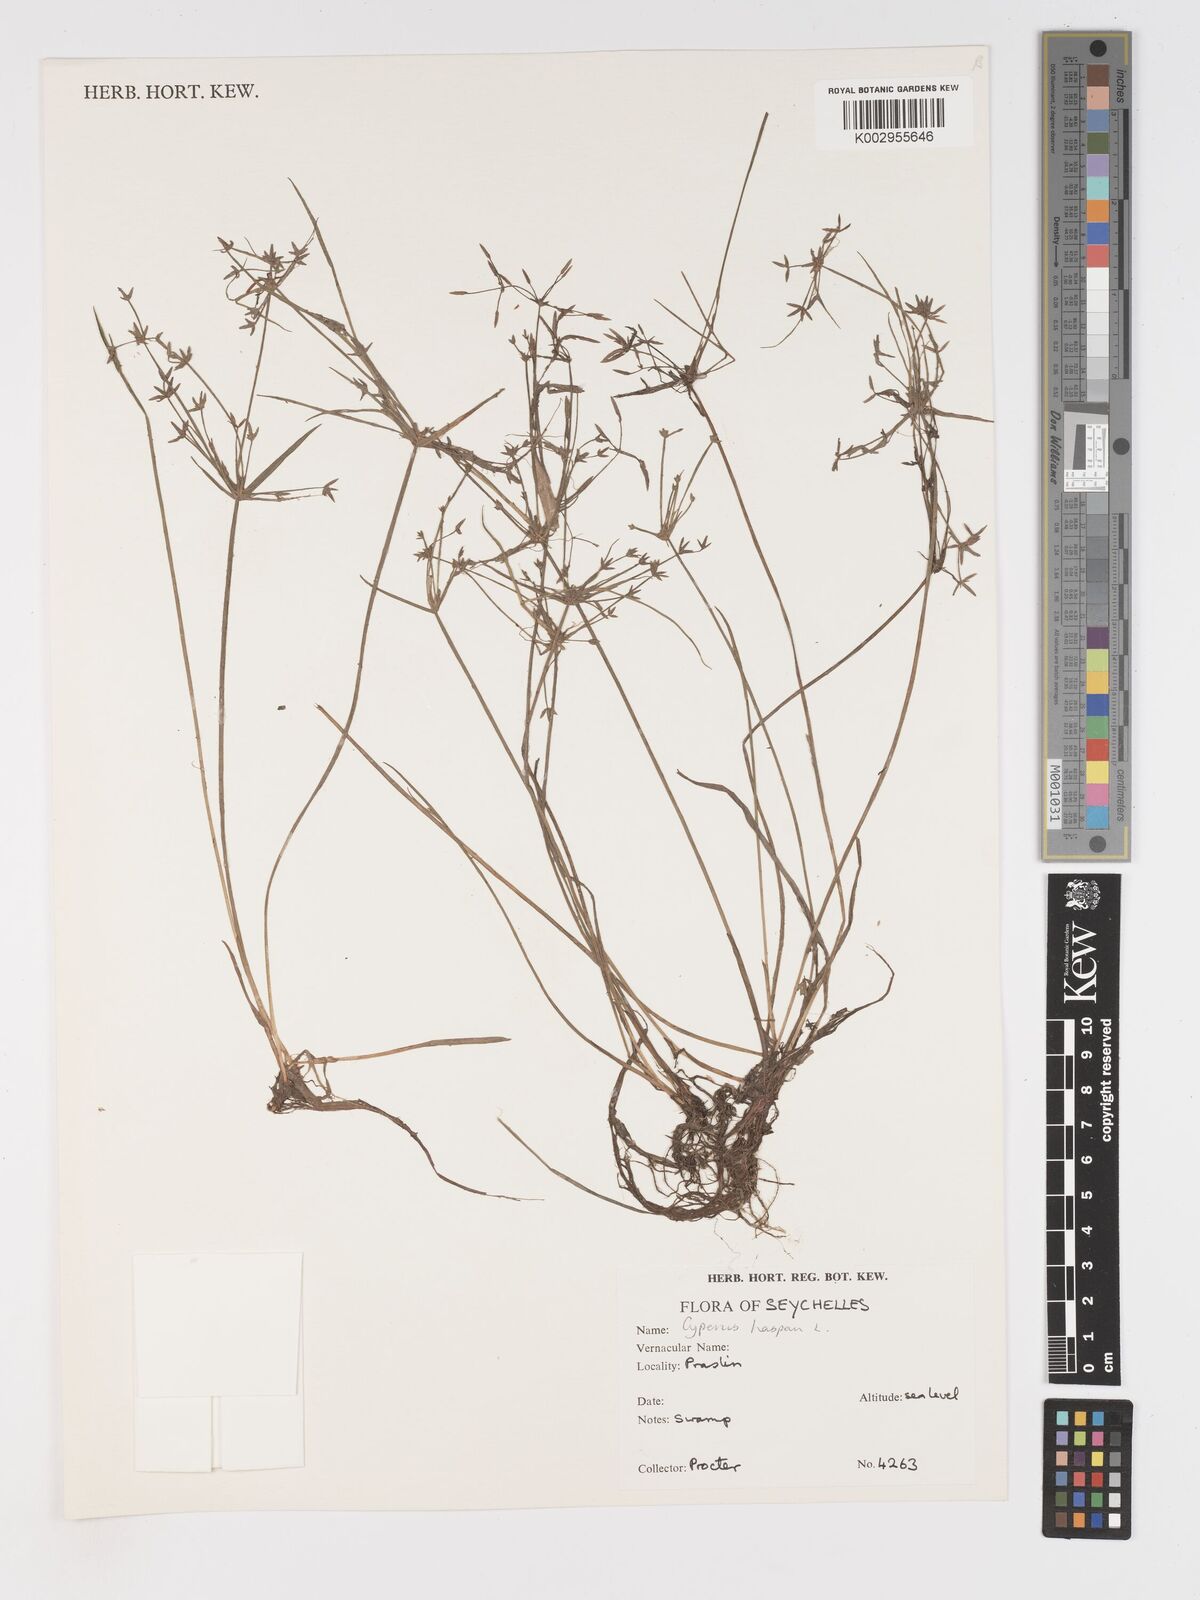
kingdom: Plantae
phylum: Tracheophyta
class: Liliopsida
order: Poales
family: Cyperaceae
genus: Cyperus
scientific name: Cyperus haspan
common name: Haspan flatsedge
